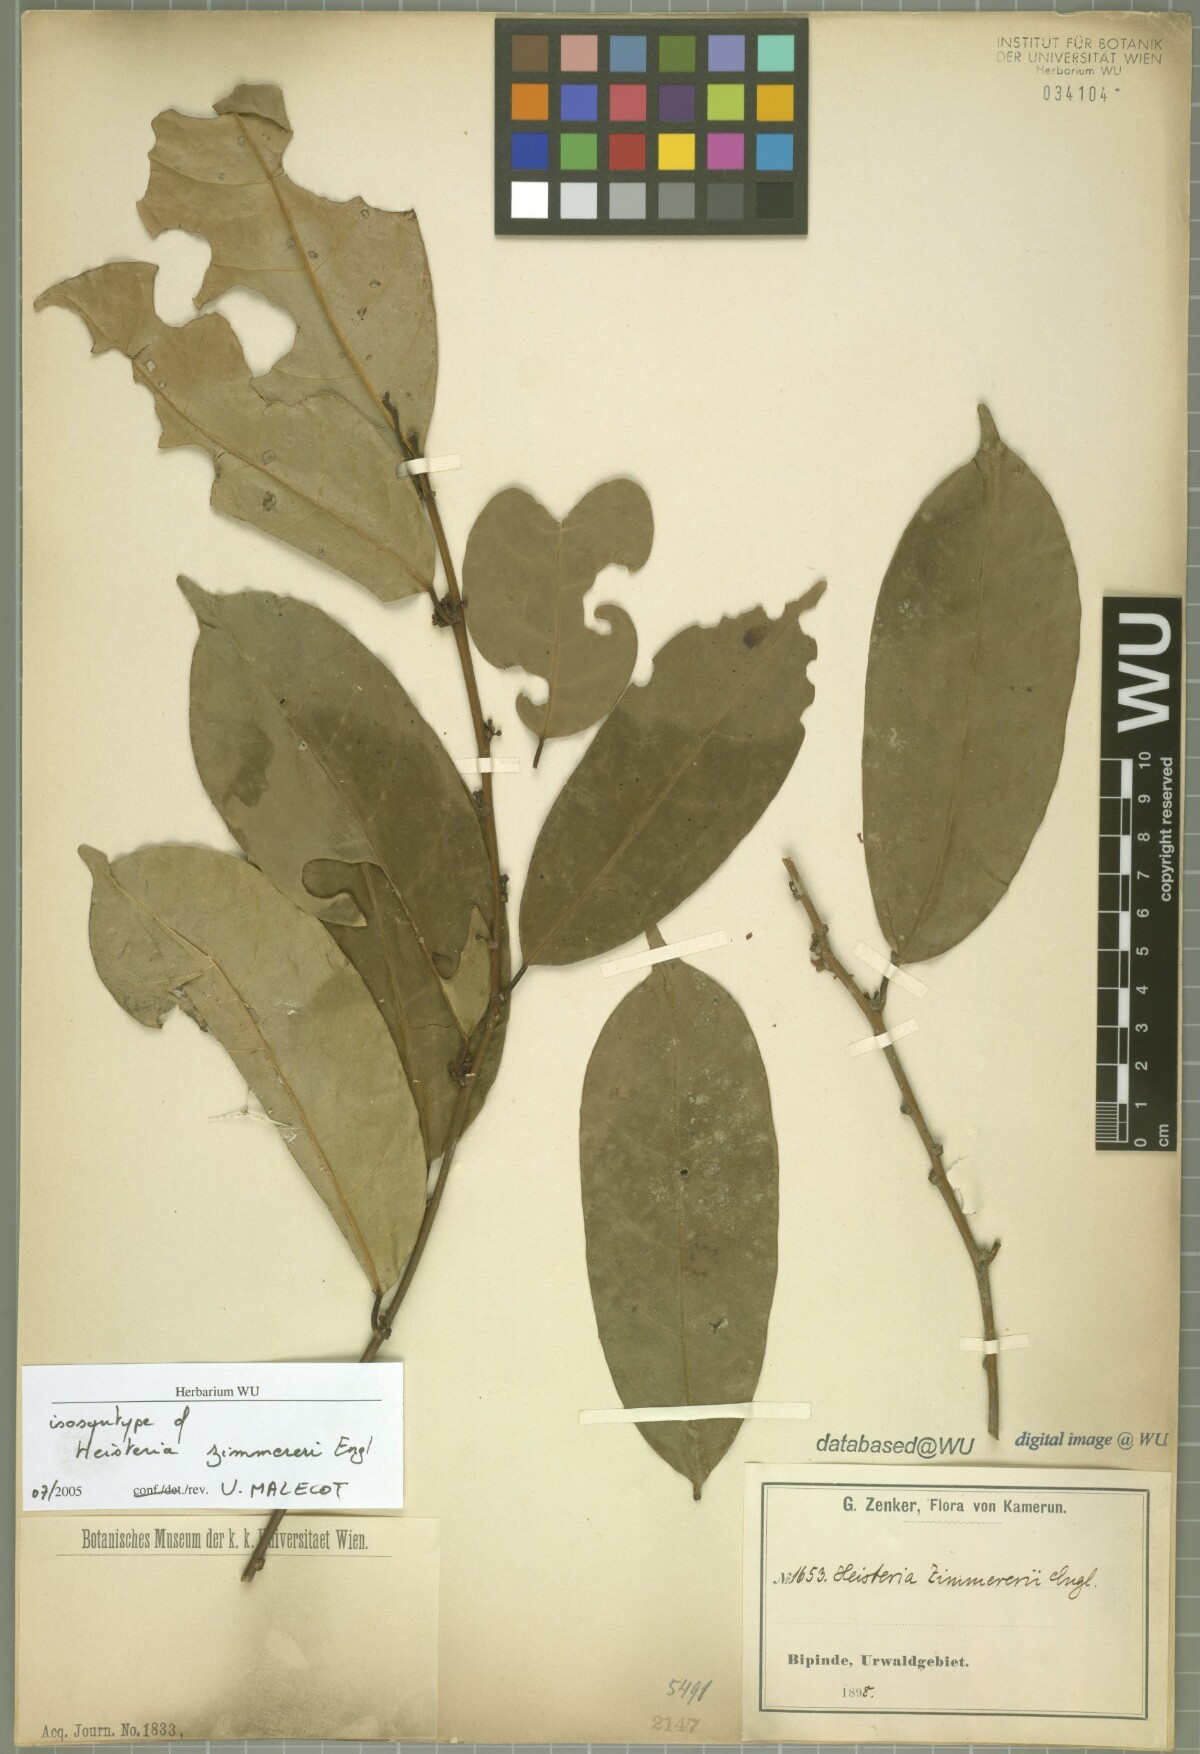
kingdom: Plantae
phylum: Tracheophyta
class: Magnoliopsida
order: Santalales
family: Erythropalaceae
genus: Heisteria
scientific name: Heisteria zimmereri
